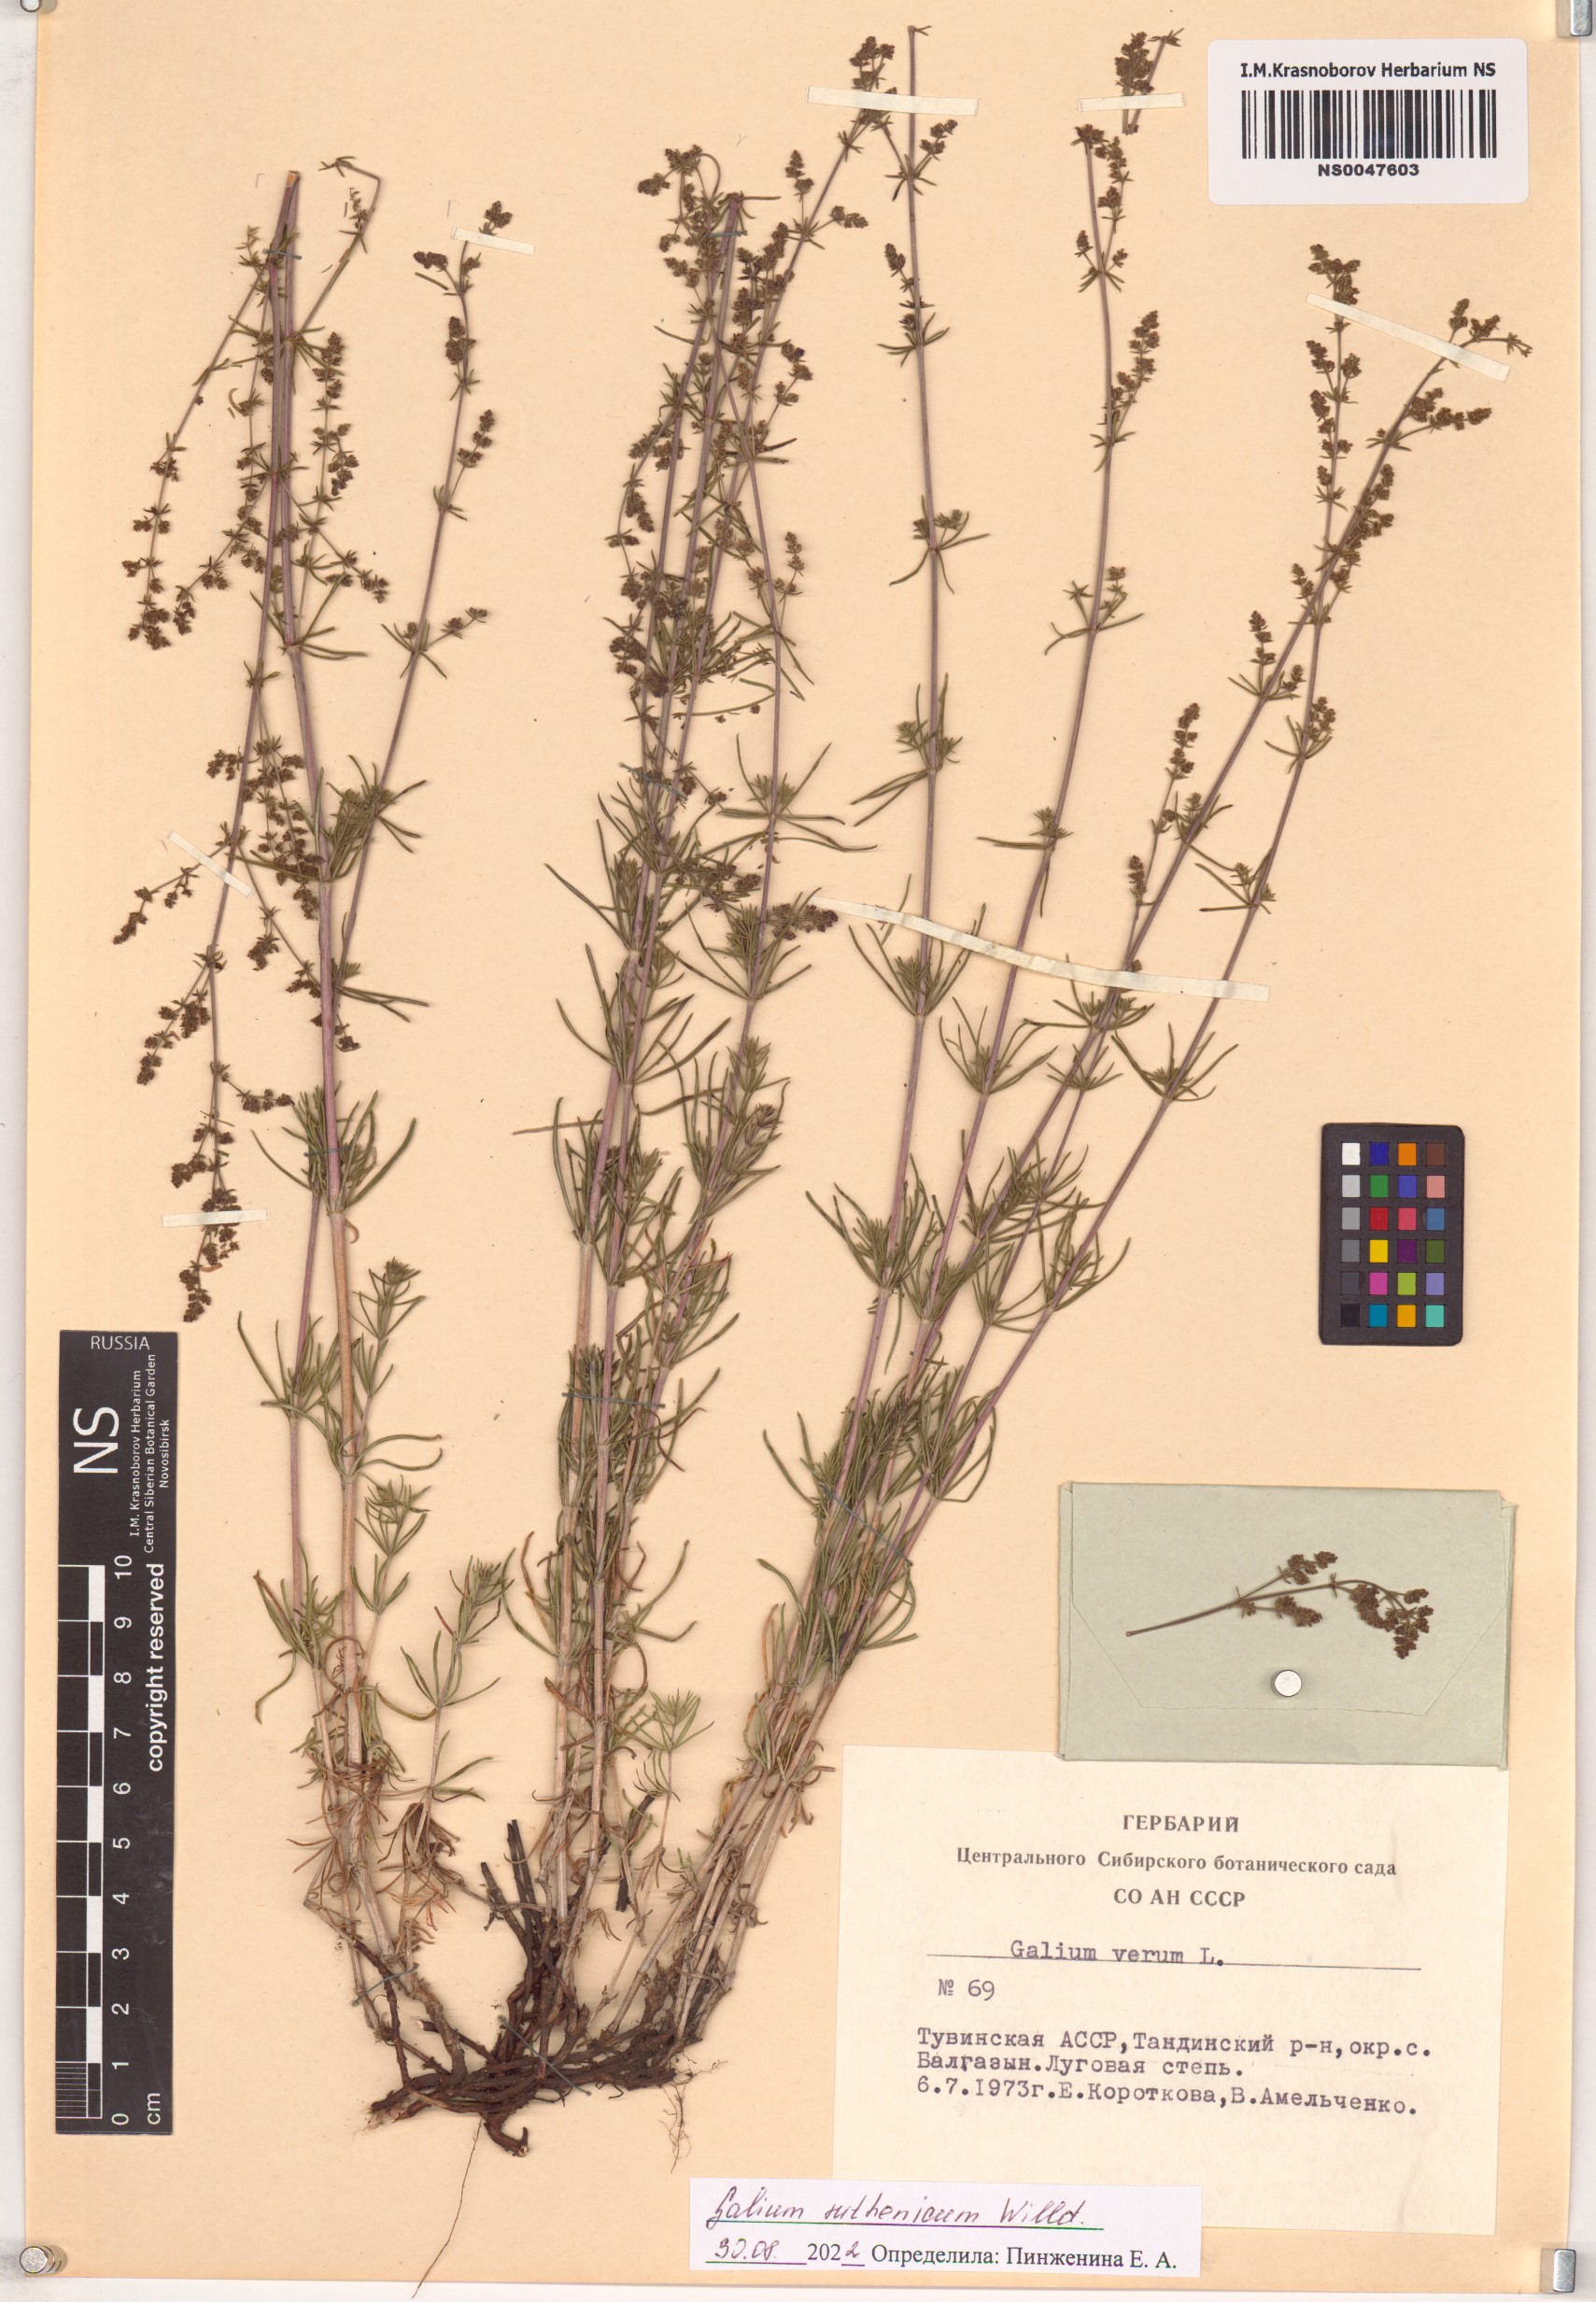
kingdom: Plantae
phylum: Tracheophyta
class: Magnoliopsida
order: Gentianales
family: Rubiaceae
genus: Galium
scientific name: Galium verum
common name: Lady's bedstraw
